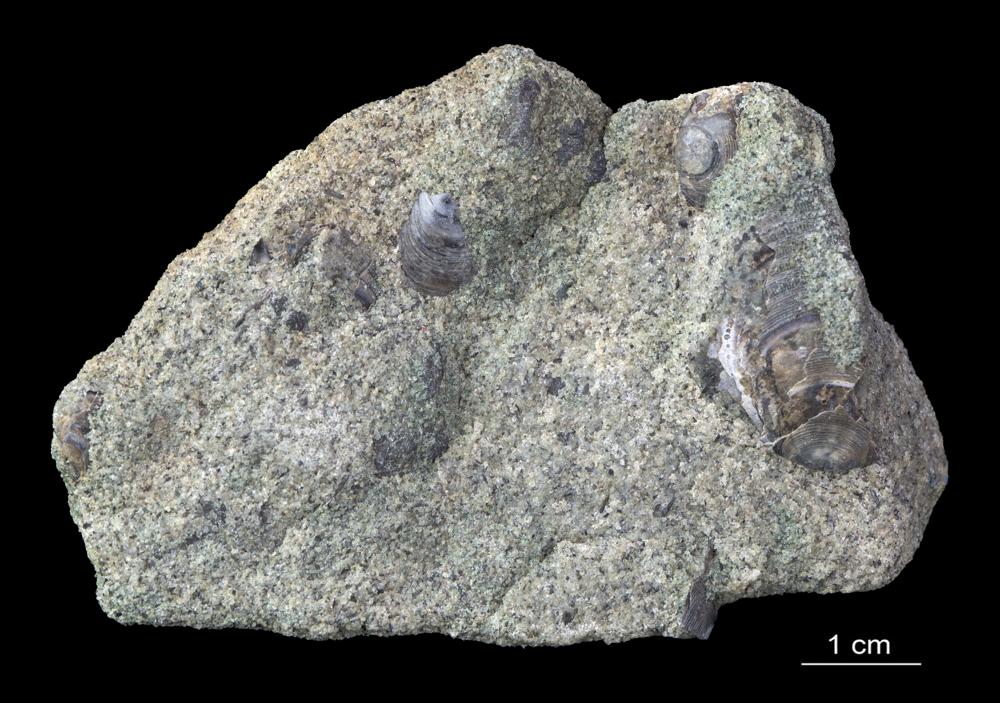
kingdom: Animalia
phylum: Brachiopoda
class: Lingulata
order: Lingulida
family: Zhanatellidae
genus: Thysanotos
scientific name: Thysanotos
